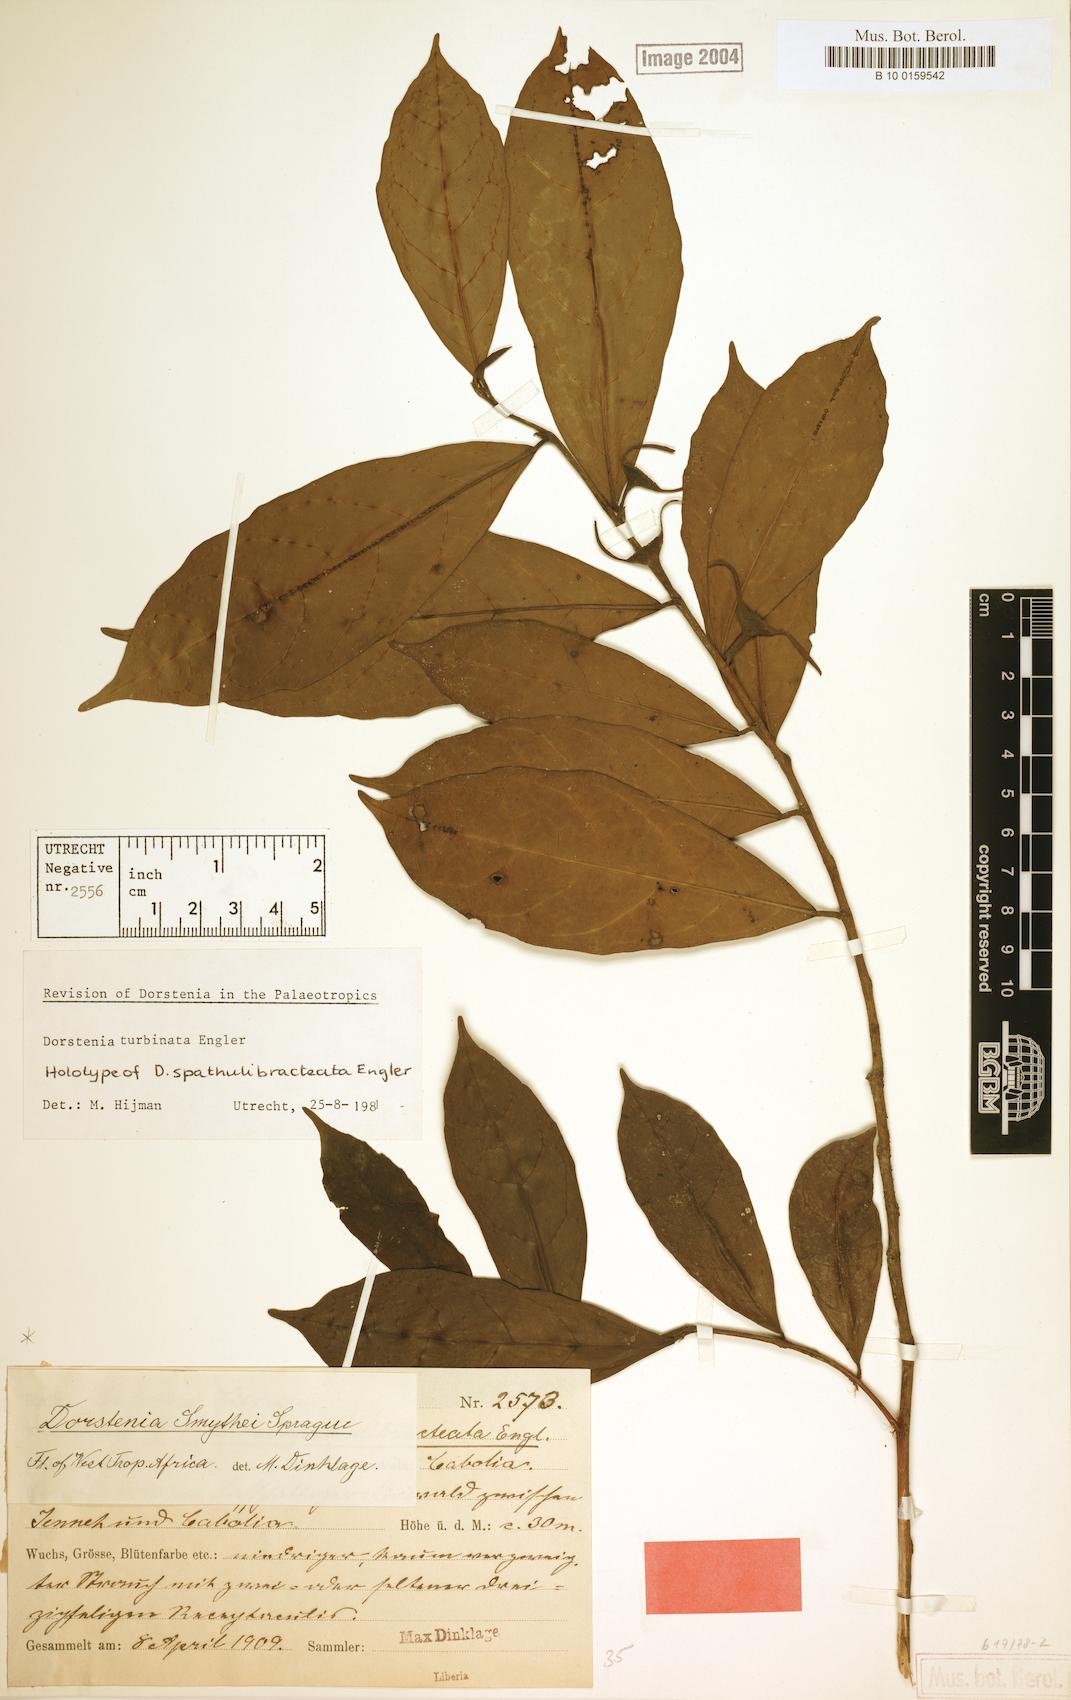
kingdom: Plantae
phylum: Tracheophyta
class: Magnoliopsida
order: Rosales
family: Moraceae
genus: Hijmania
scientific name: Hijmania turbinata
